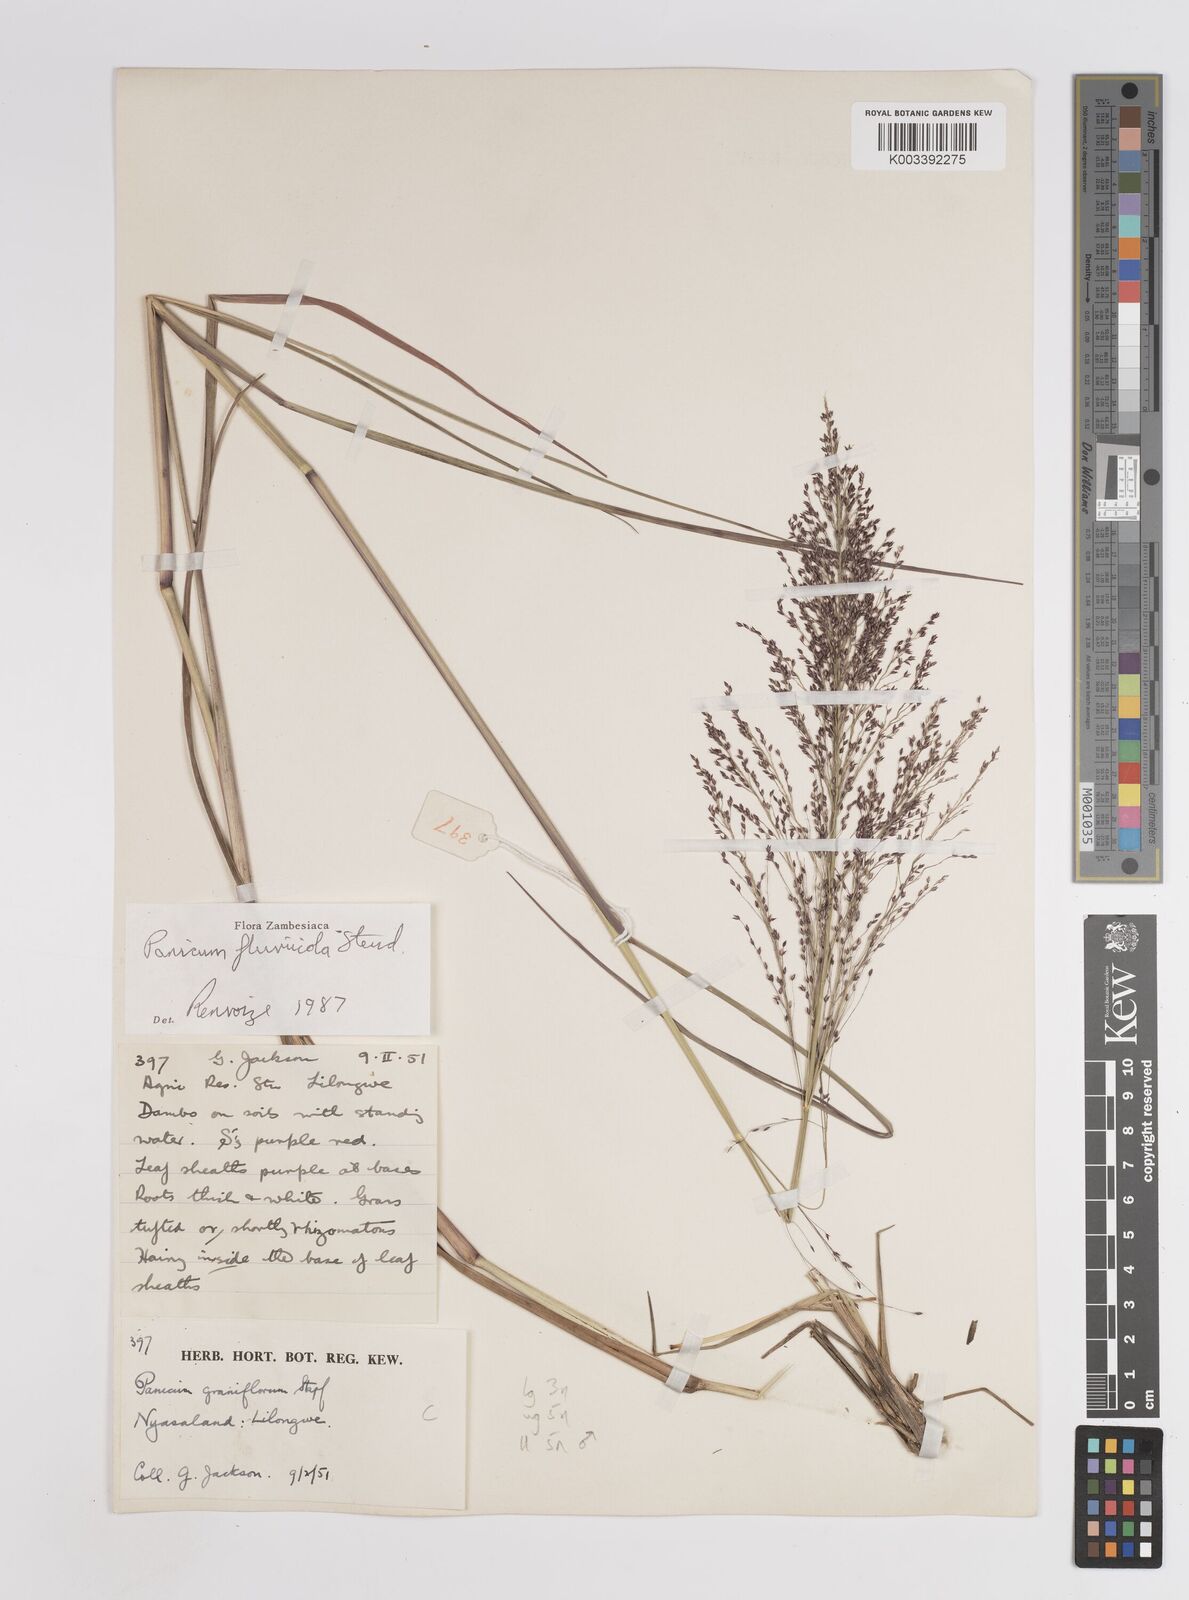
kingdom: Plantae
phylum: Tracheophyta
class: Liliopsida
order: Poales
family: Poaceae
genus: Panicum
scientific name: Panicum fluviicola
